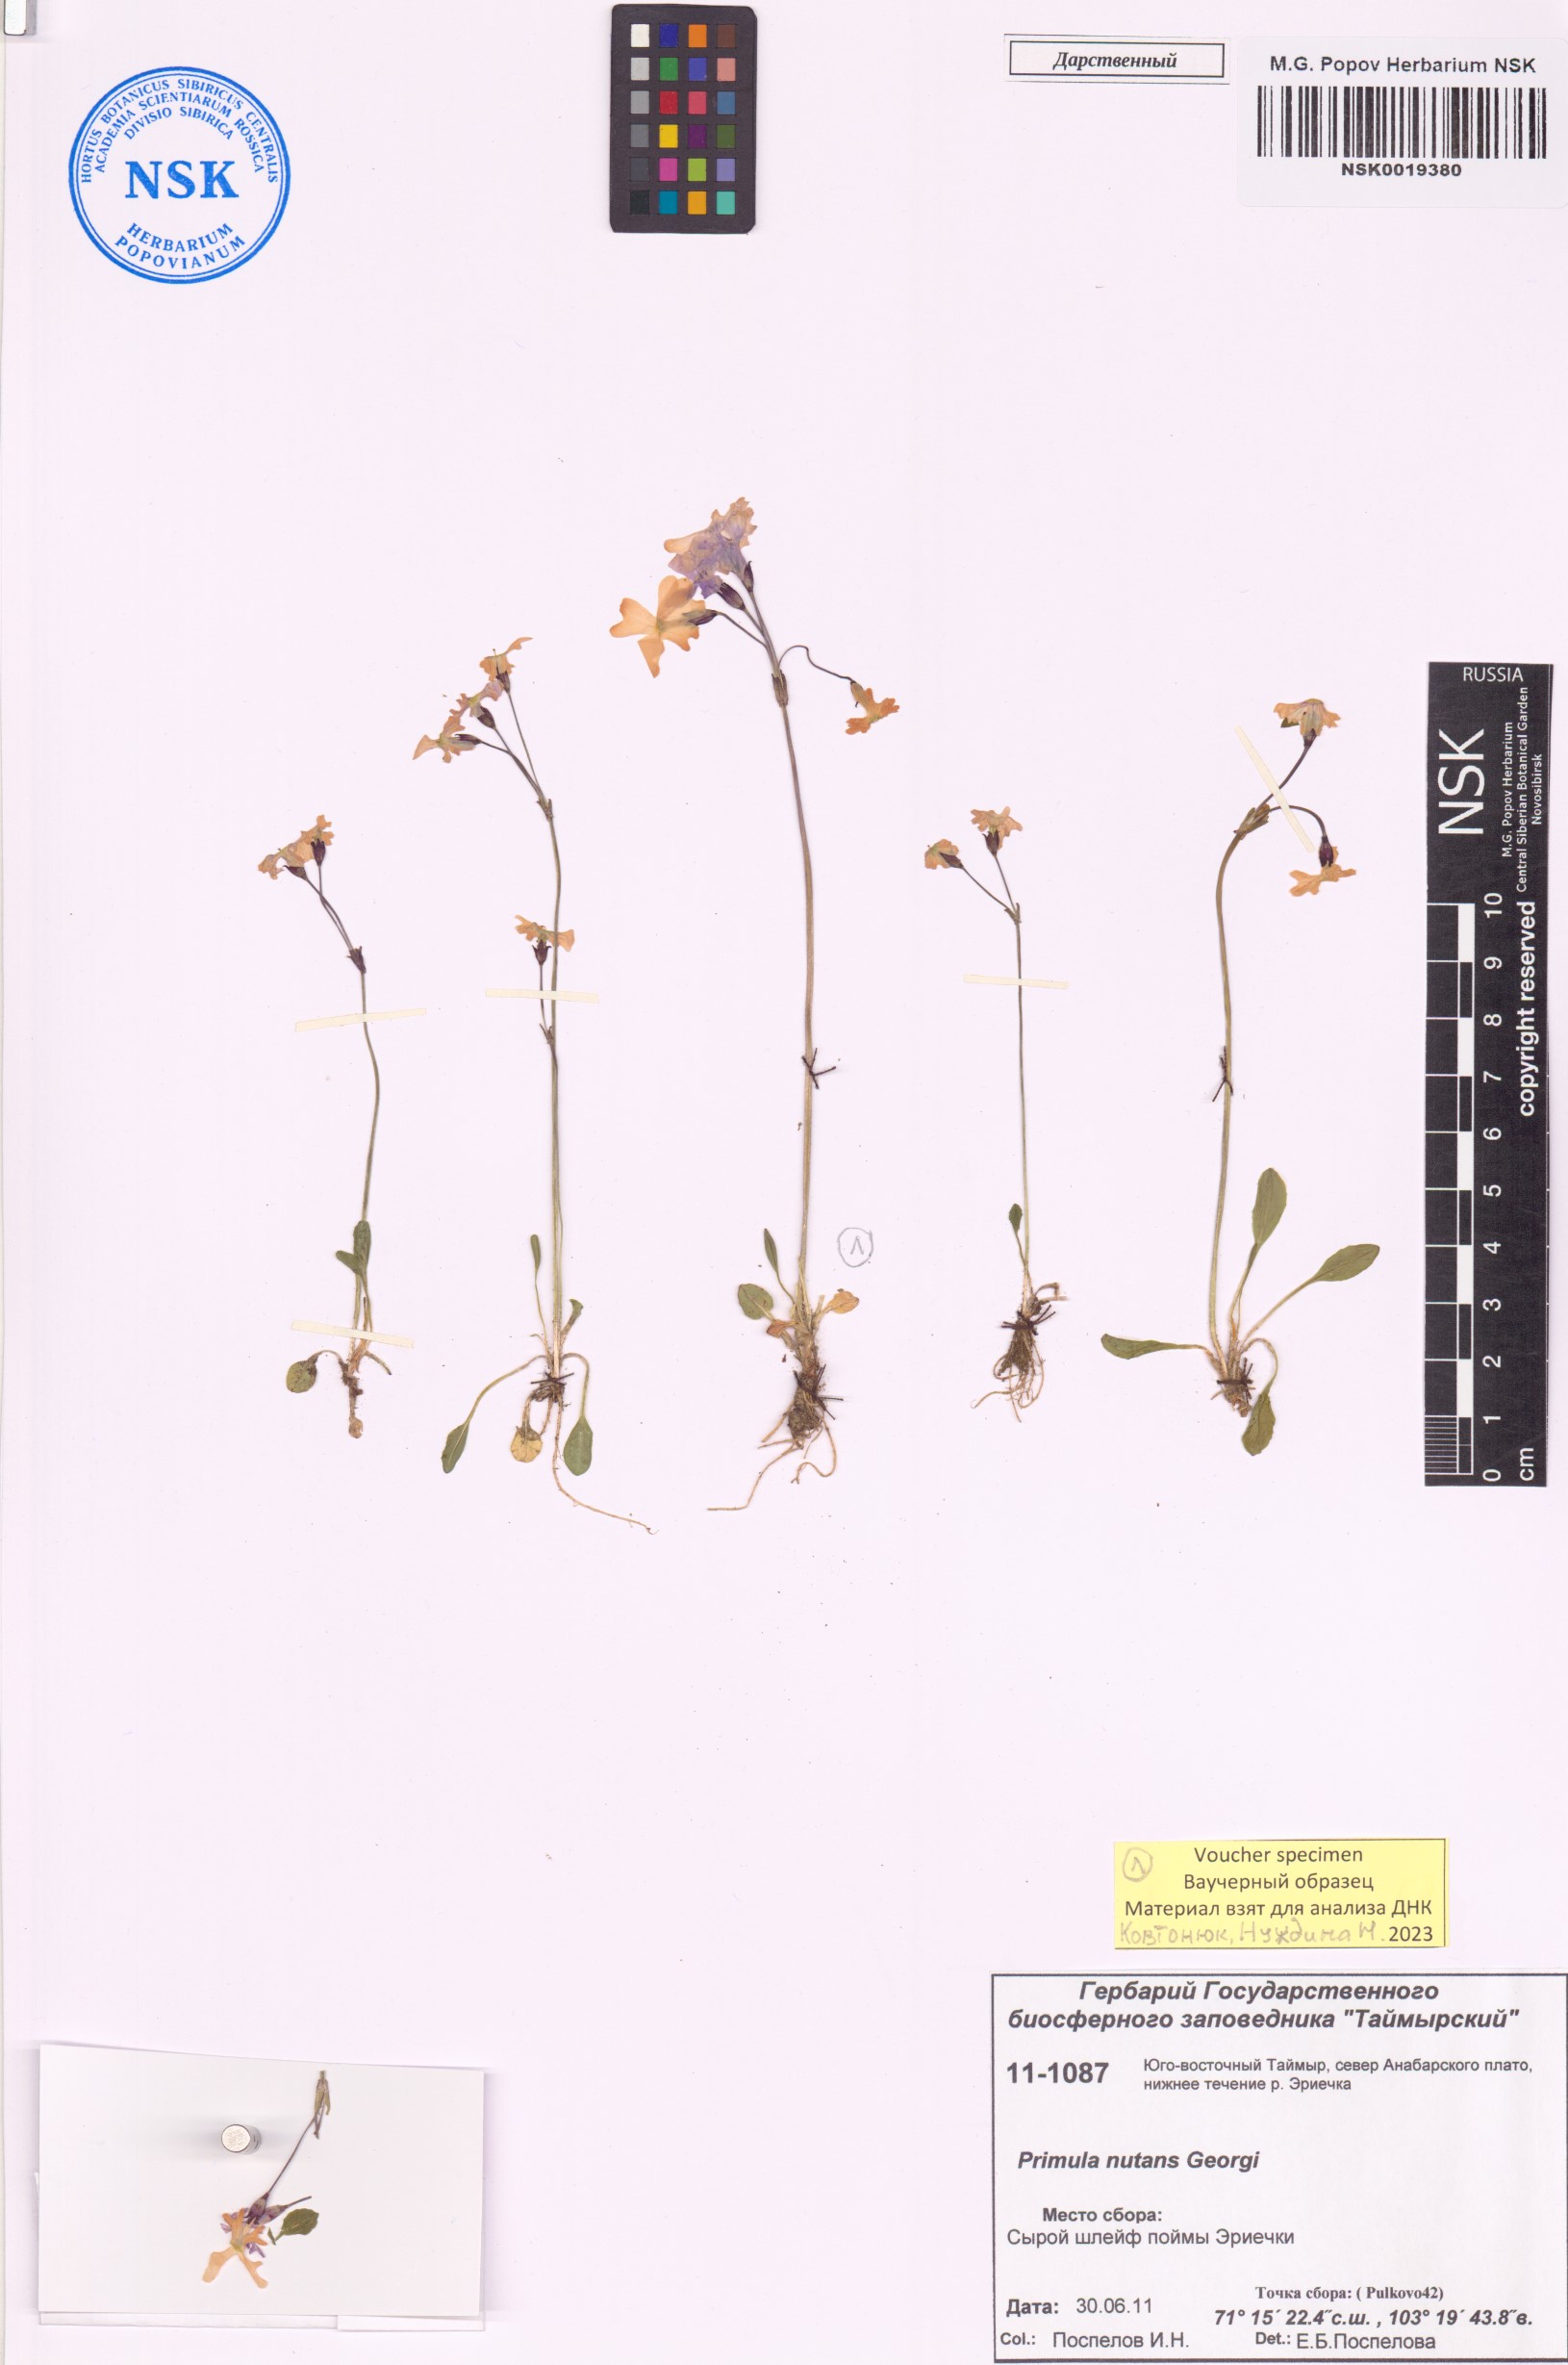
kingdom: Plantae
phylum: Tracheophyta
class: Magnoliopsida
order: Ericales
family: Primulaceae
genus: Primula
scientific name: Primula nutans
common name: Siberian primrose
